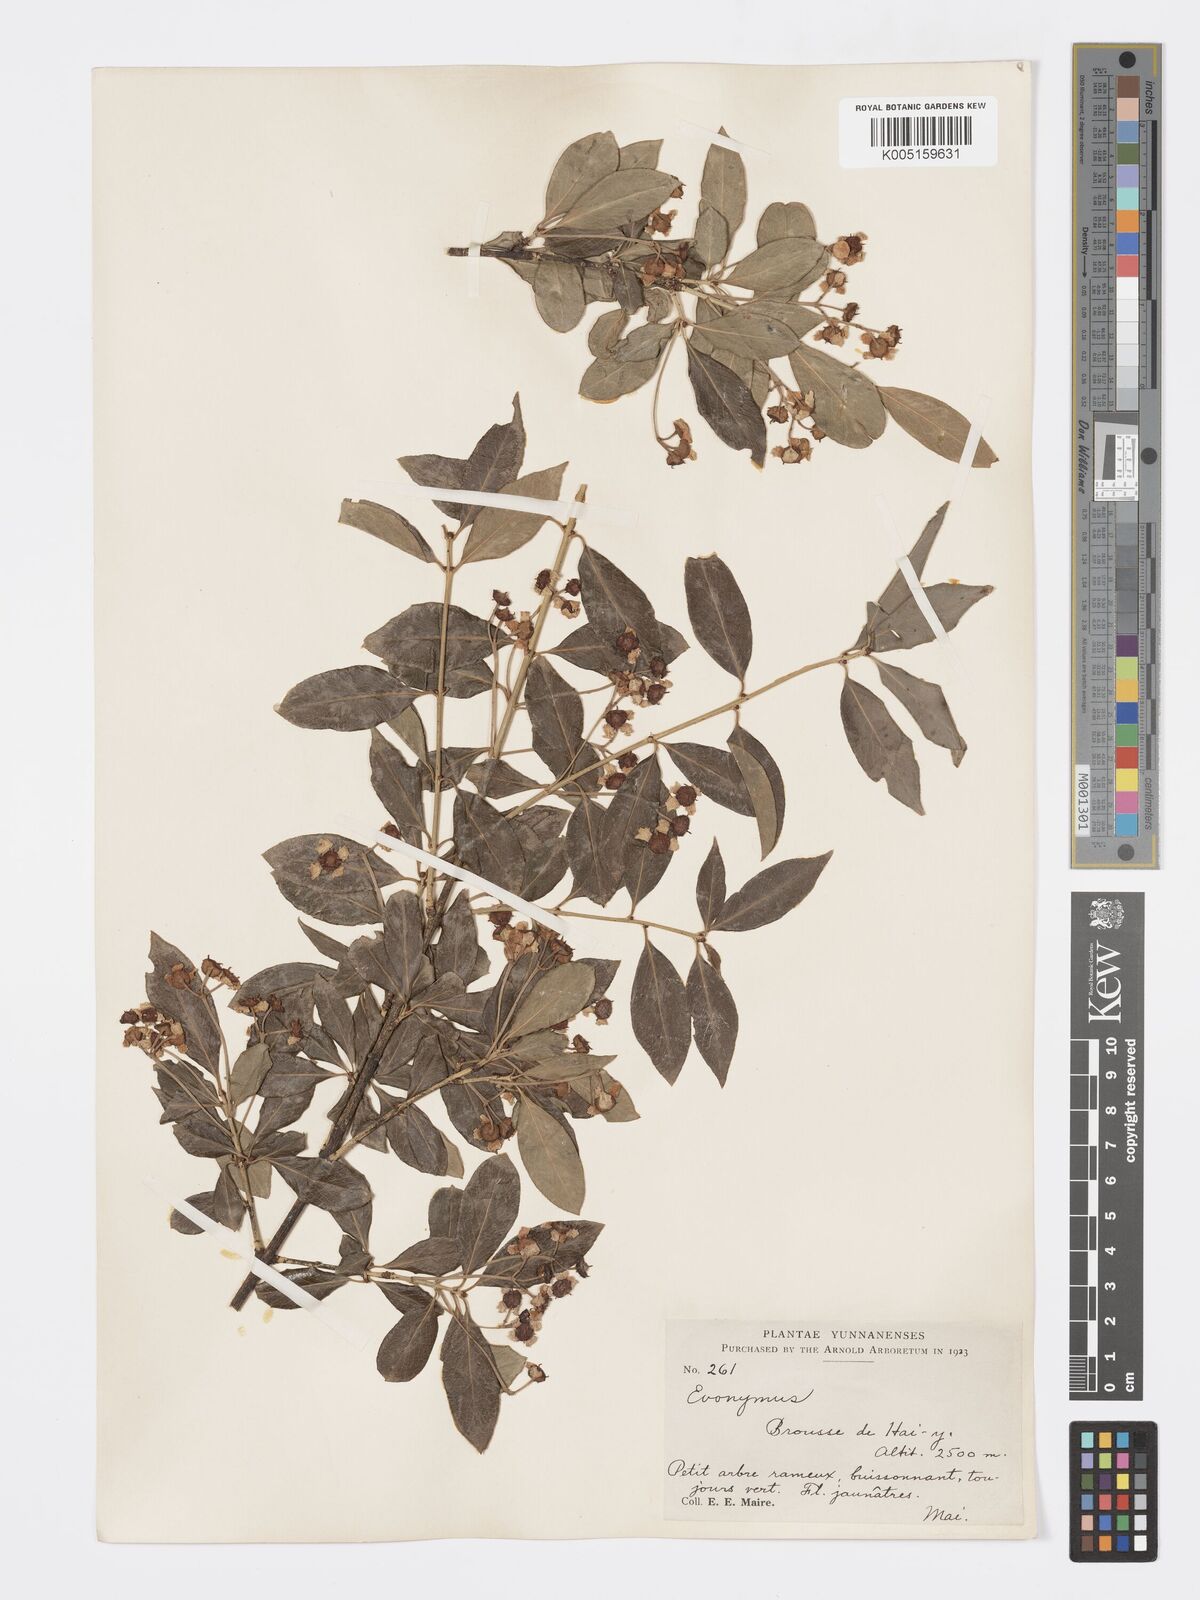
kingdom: Plantae
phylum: Tracheophyta
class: Magnoliopsida
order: Celastrales
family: Celastraceae
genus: Euonymus
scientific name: Euonymus grandiflorus
